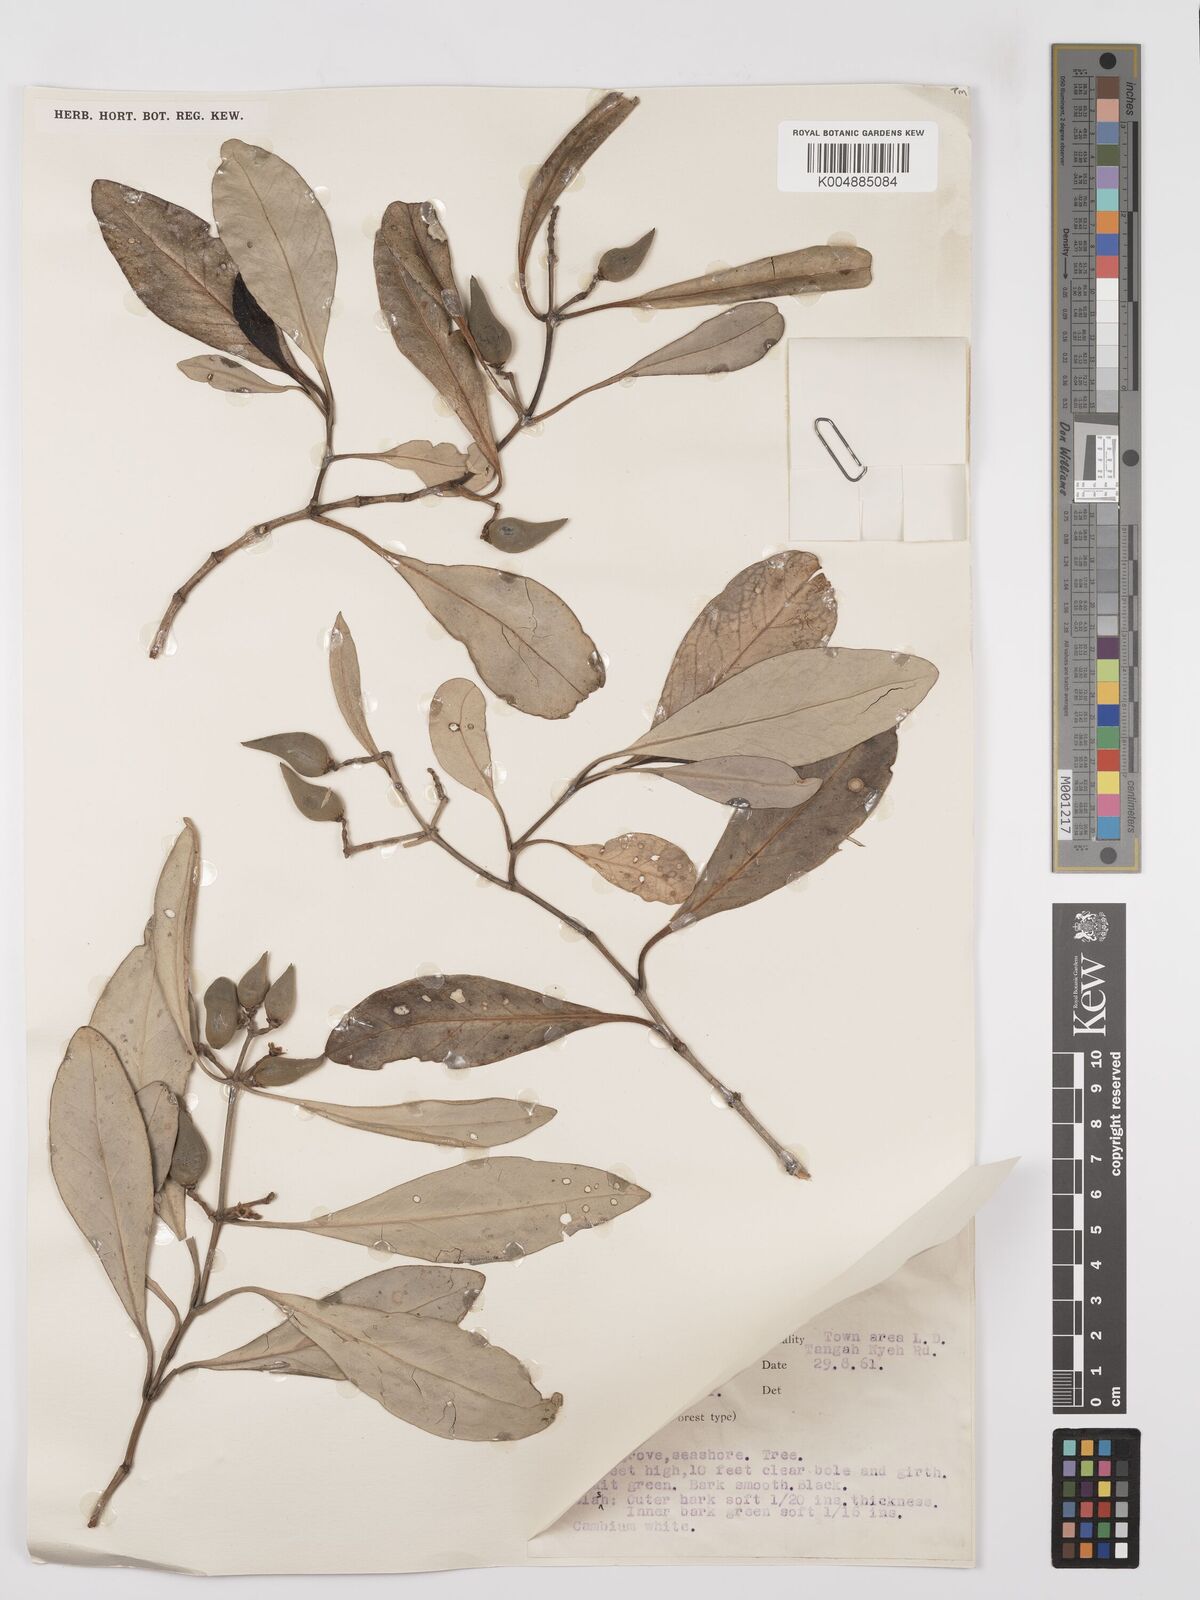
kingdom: Plantae
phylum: Tracheophyta
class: Magnoliopsida
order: Lamiales
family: Acanthaceae
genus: Avicennia
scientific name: Avicennia alba
